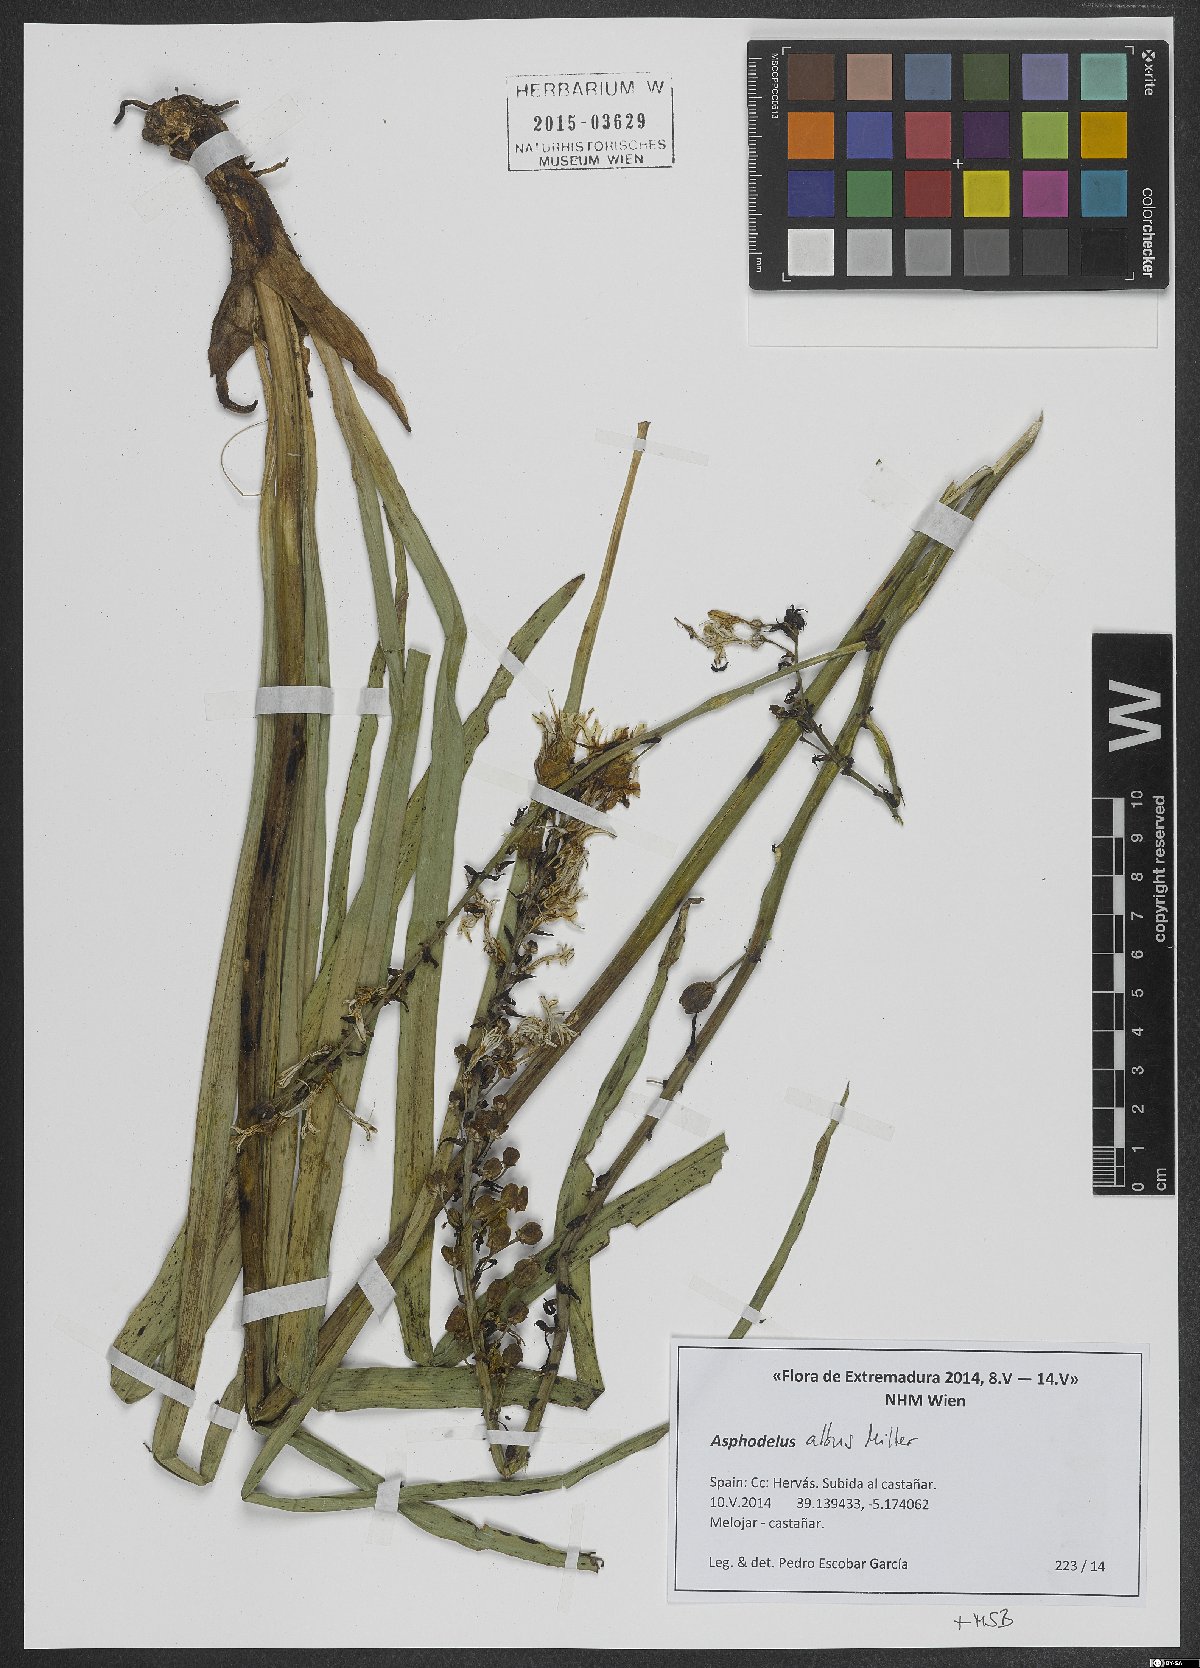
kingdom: Plantae
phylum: Tracheophyta
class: Liliopsida
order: Asparagales
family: Asphodelaceae
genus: Asphodelus
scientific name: Asphodelus albus
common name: White asphodel
